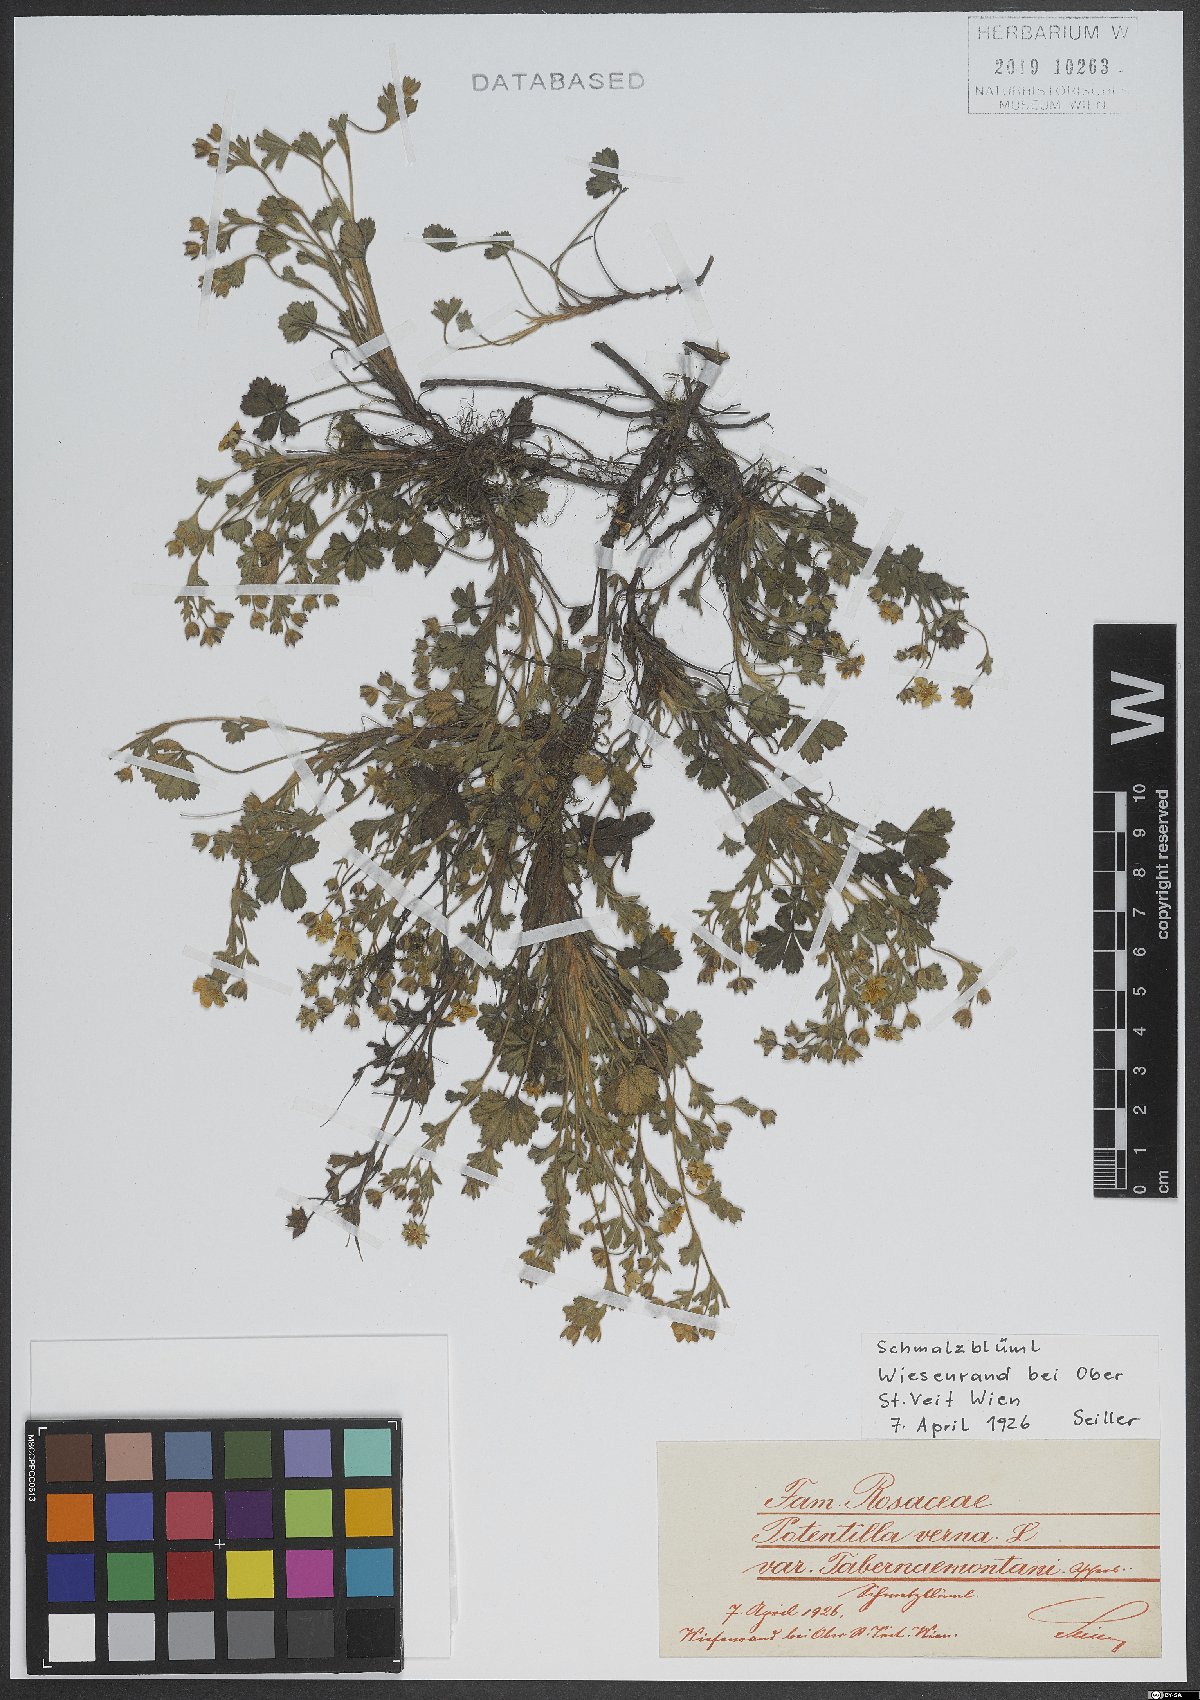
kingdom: Plantae
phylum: Tracheophyta
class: Magnoliopsida
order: Rosales
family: Rosaceae
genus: Potentilla
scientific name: Potentilla verna
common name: Spring cinquefoil
